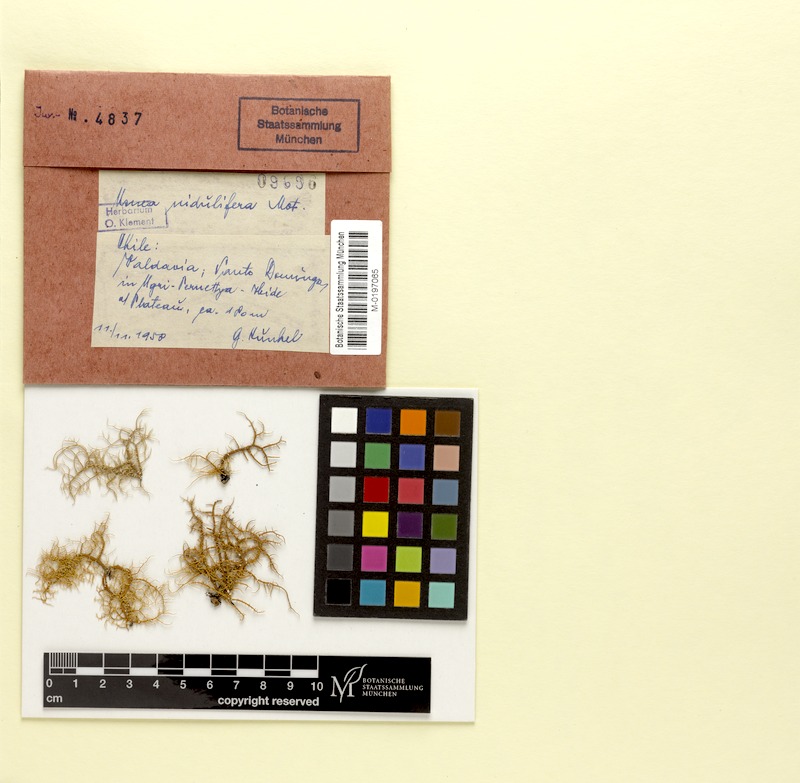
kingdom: Fungi
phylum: Ascomycota
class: Lecanoromycetes
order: Lecanorales
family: Parmeliaceae
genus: Usnea
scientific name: Usnea nidulifera
